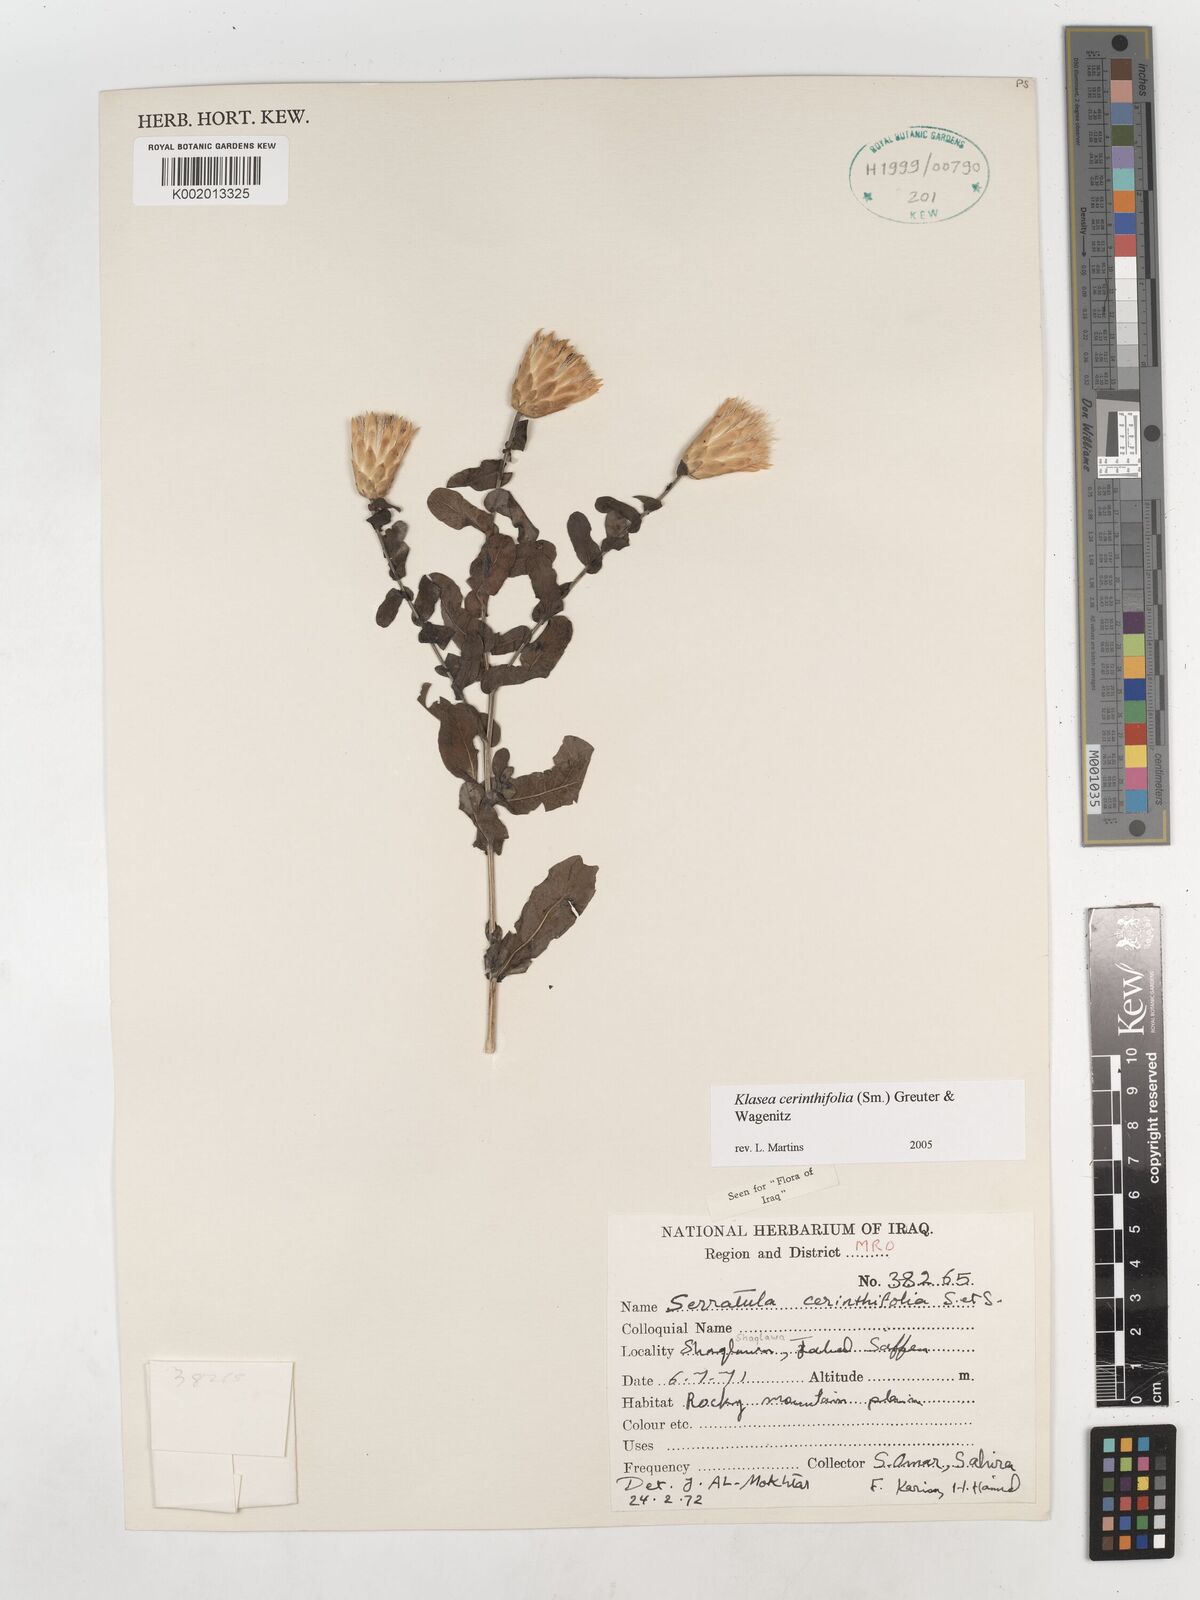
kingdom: Plantae
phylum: Tracheophyta
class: Magnoliopsida
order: Asterales
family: Asteraceae
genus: Klasea
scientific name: Klasea cerinthifolia
